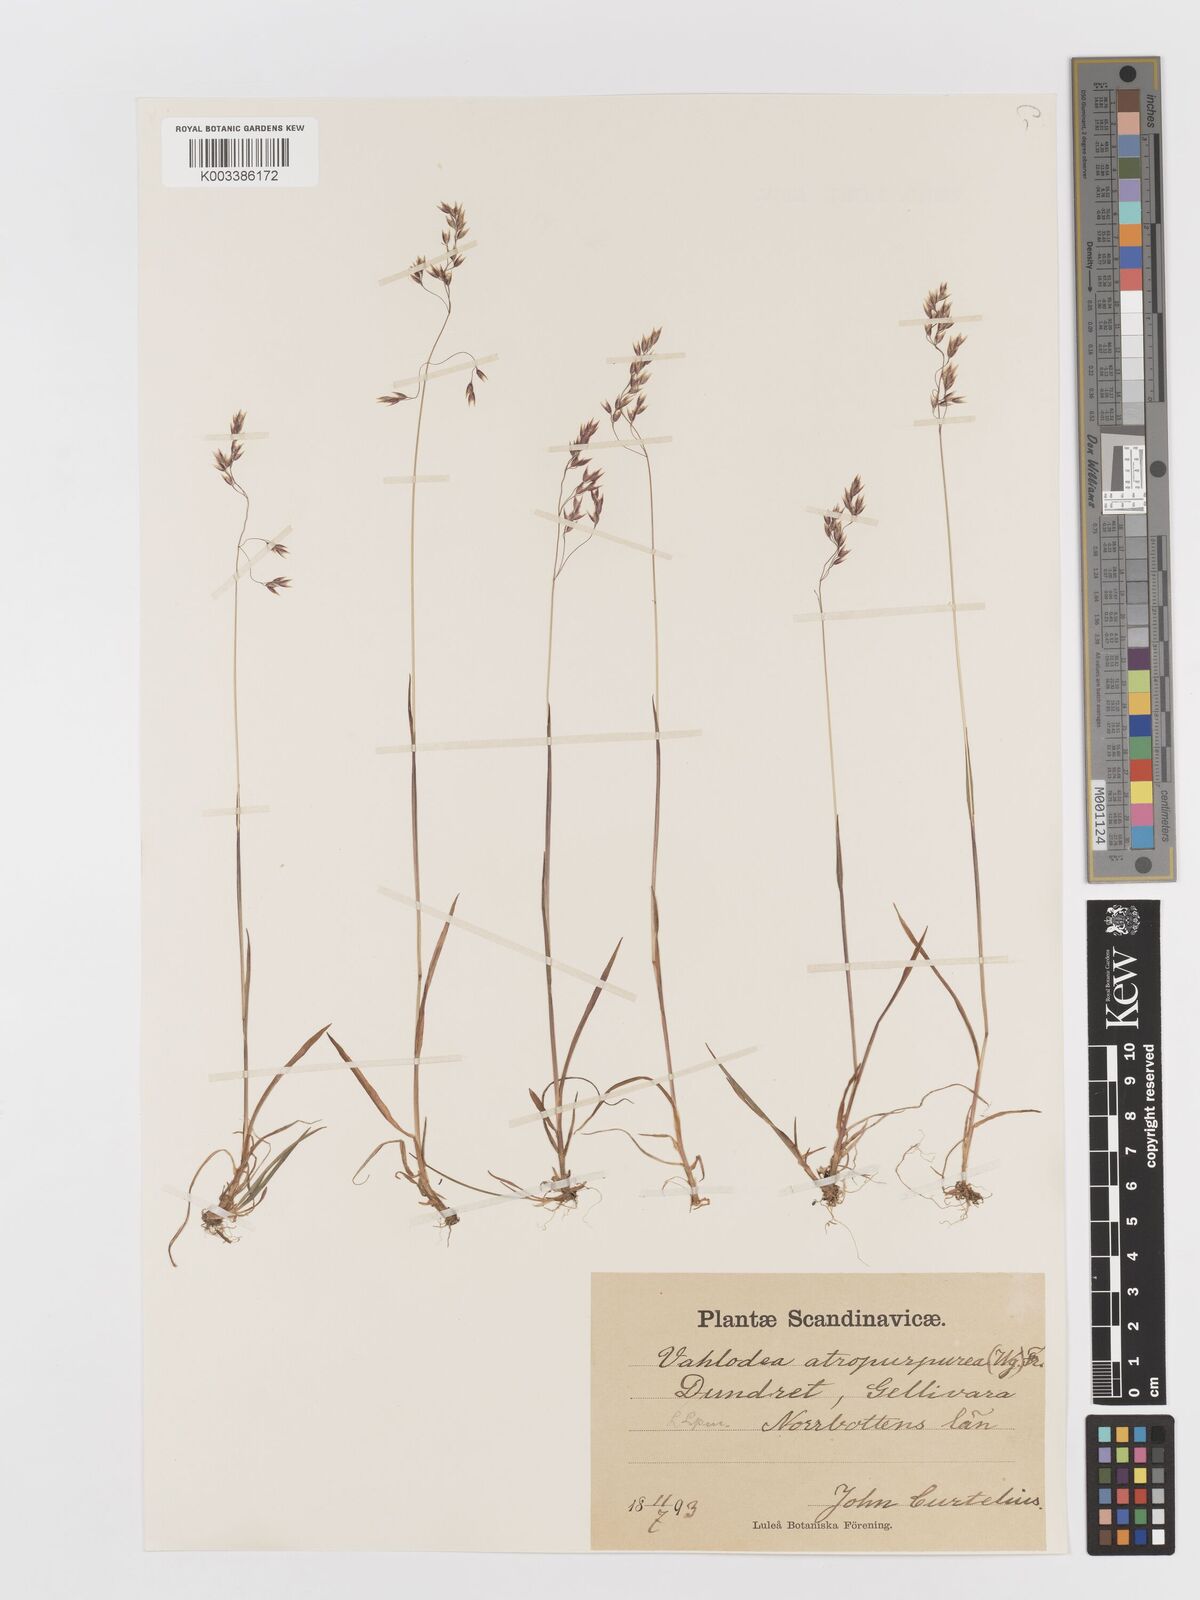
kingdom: Plantae
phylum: Tracheophyta
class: Liliopsida
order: Poales
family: Poaceae
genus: Vahlodea
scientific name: Vahlodea atropurpurea
